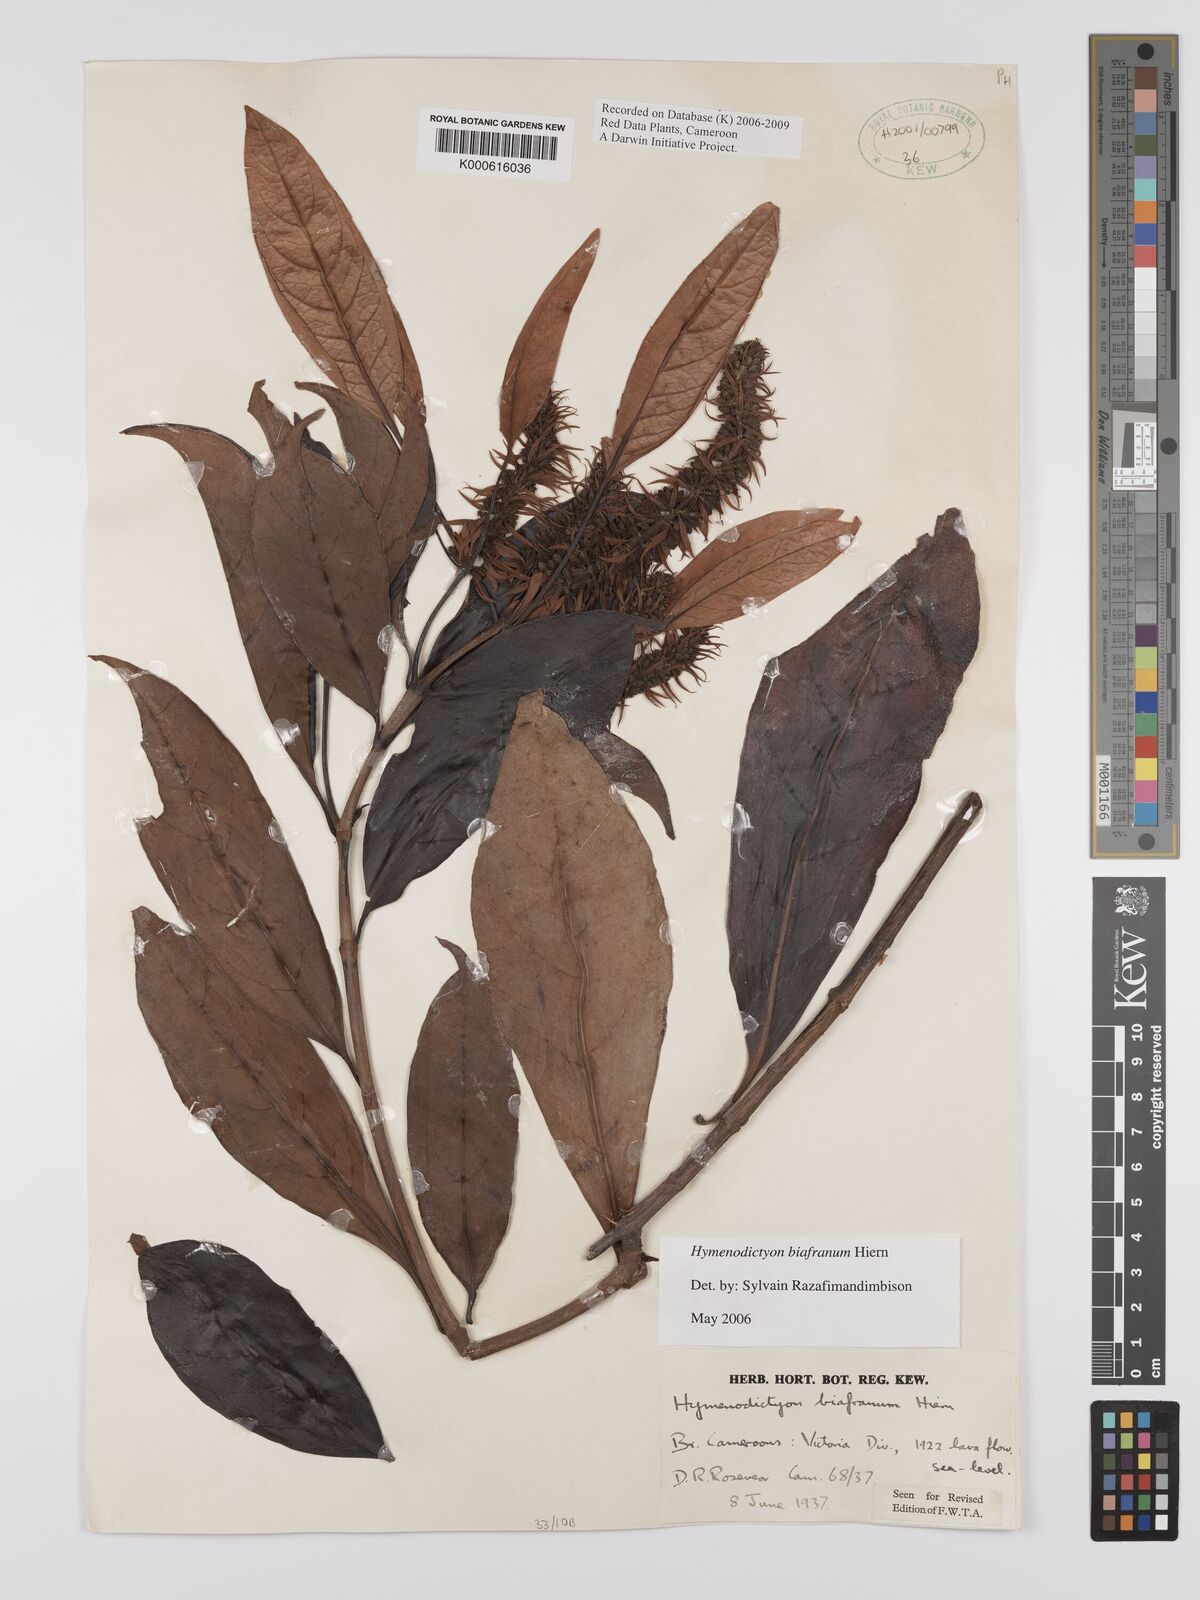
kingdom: Plantae
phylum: Tracheophyta
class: Magnoliopsida
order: Gentianales
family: Rubiaceae
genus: Hymenodictyon
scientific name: Hymenodictyon biafranum
